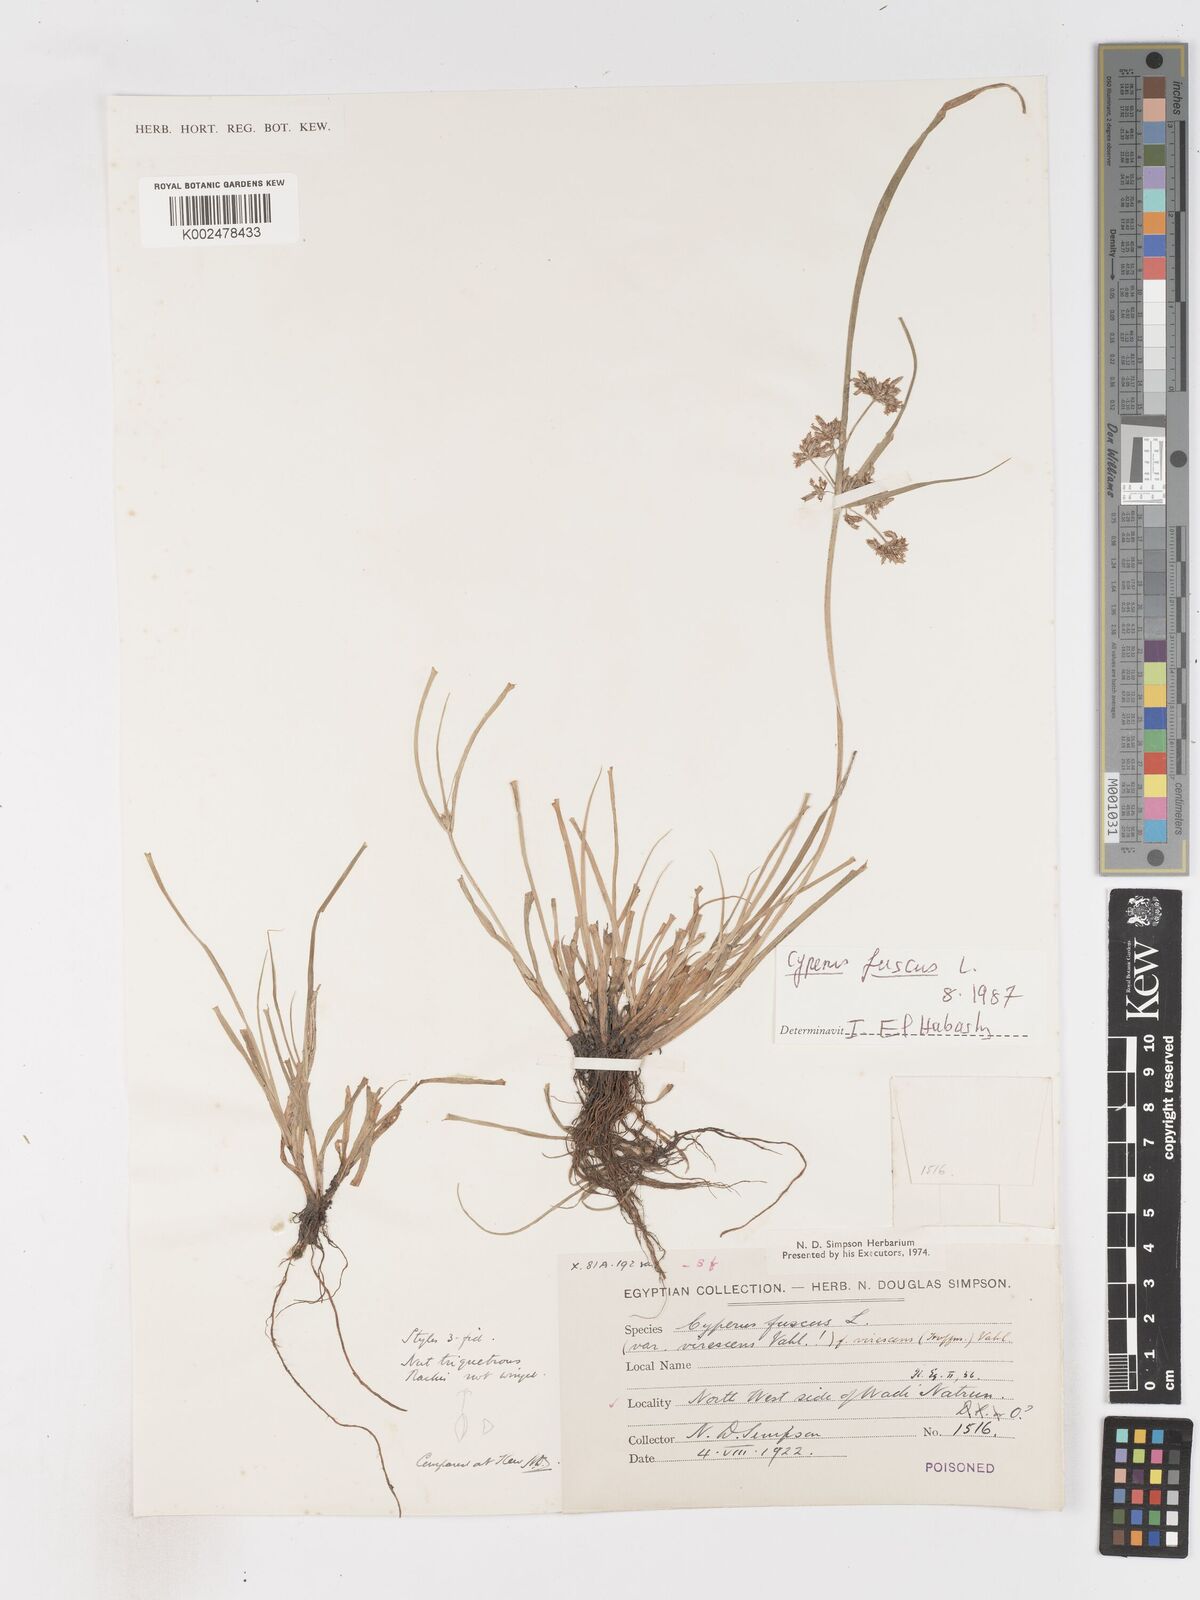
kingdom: Plantae
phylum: Tracheophyta
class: Liliopsida
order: Poales
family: Cyperaceae
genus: Cyperus
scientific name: Cyperus fuscus
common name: Brown galingale
